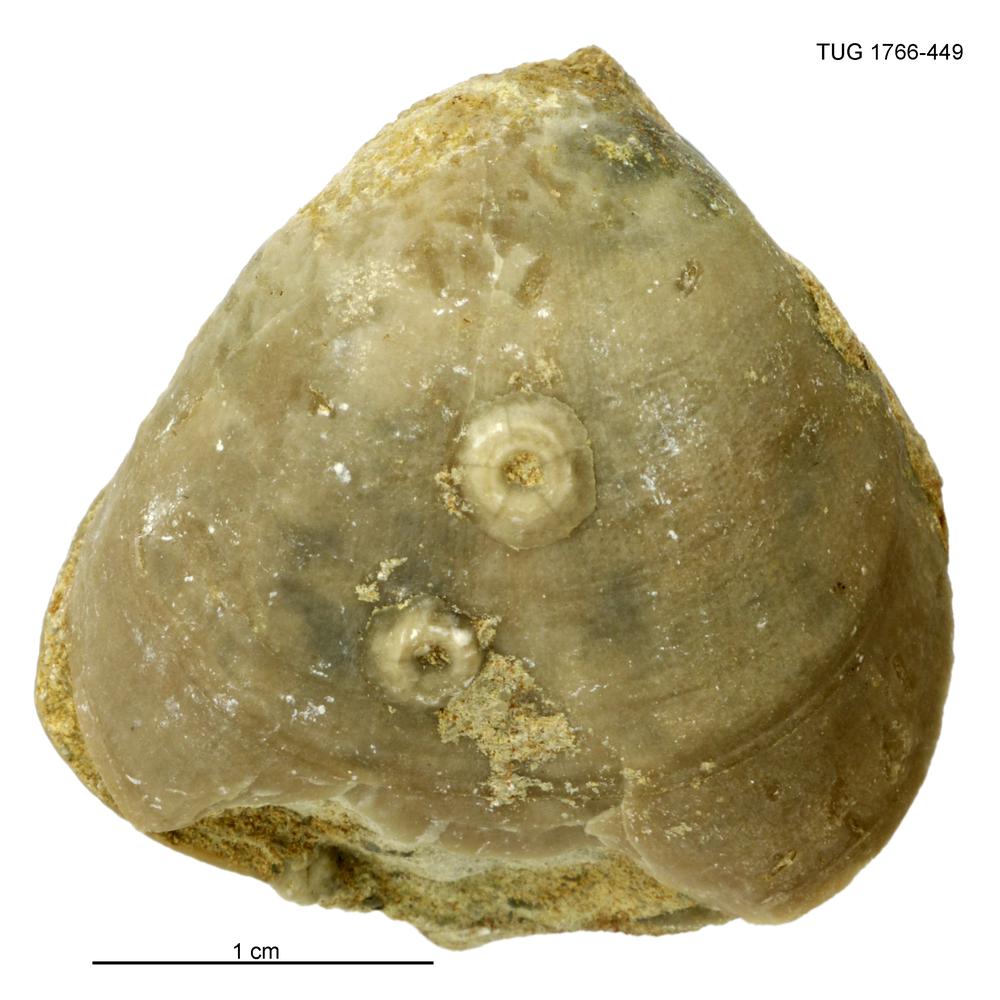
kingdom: Animalia
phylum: Brachiopoda
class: Rhynchonellata
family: Porambonitidae
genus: Porambonites
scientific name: Porambonites
